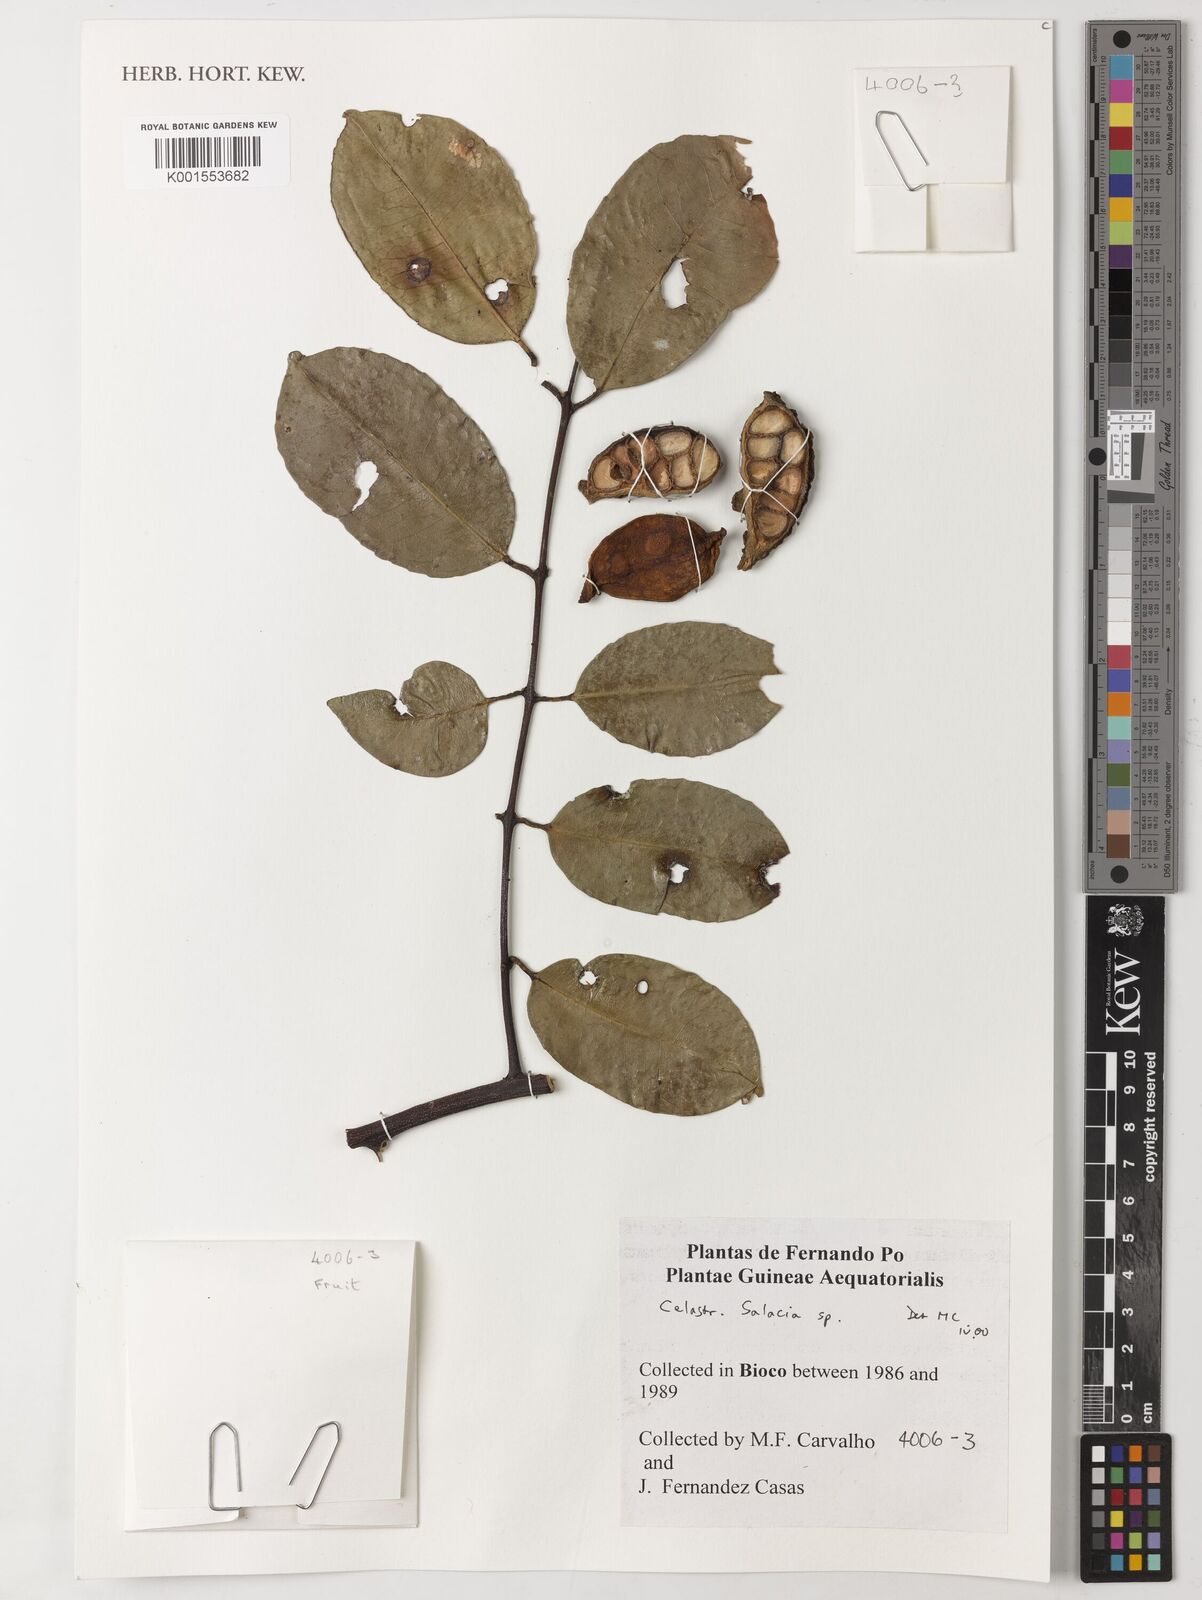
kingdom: Plantae
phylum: Tracheophyta
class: Magnoliopsida
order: Celastrales
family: Celastraceae
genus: Salacia
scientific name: Salacia
